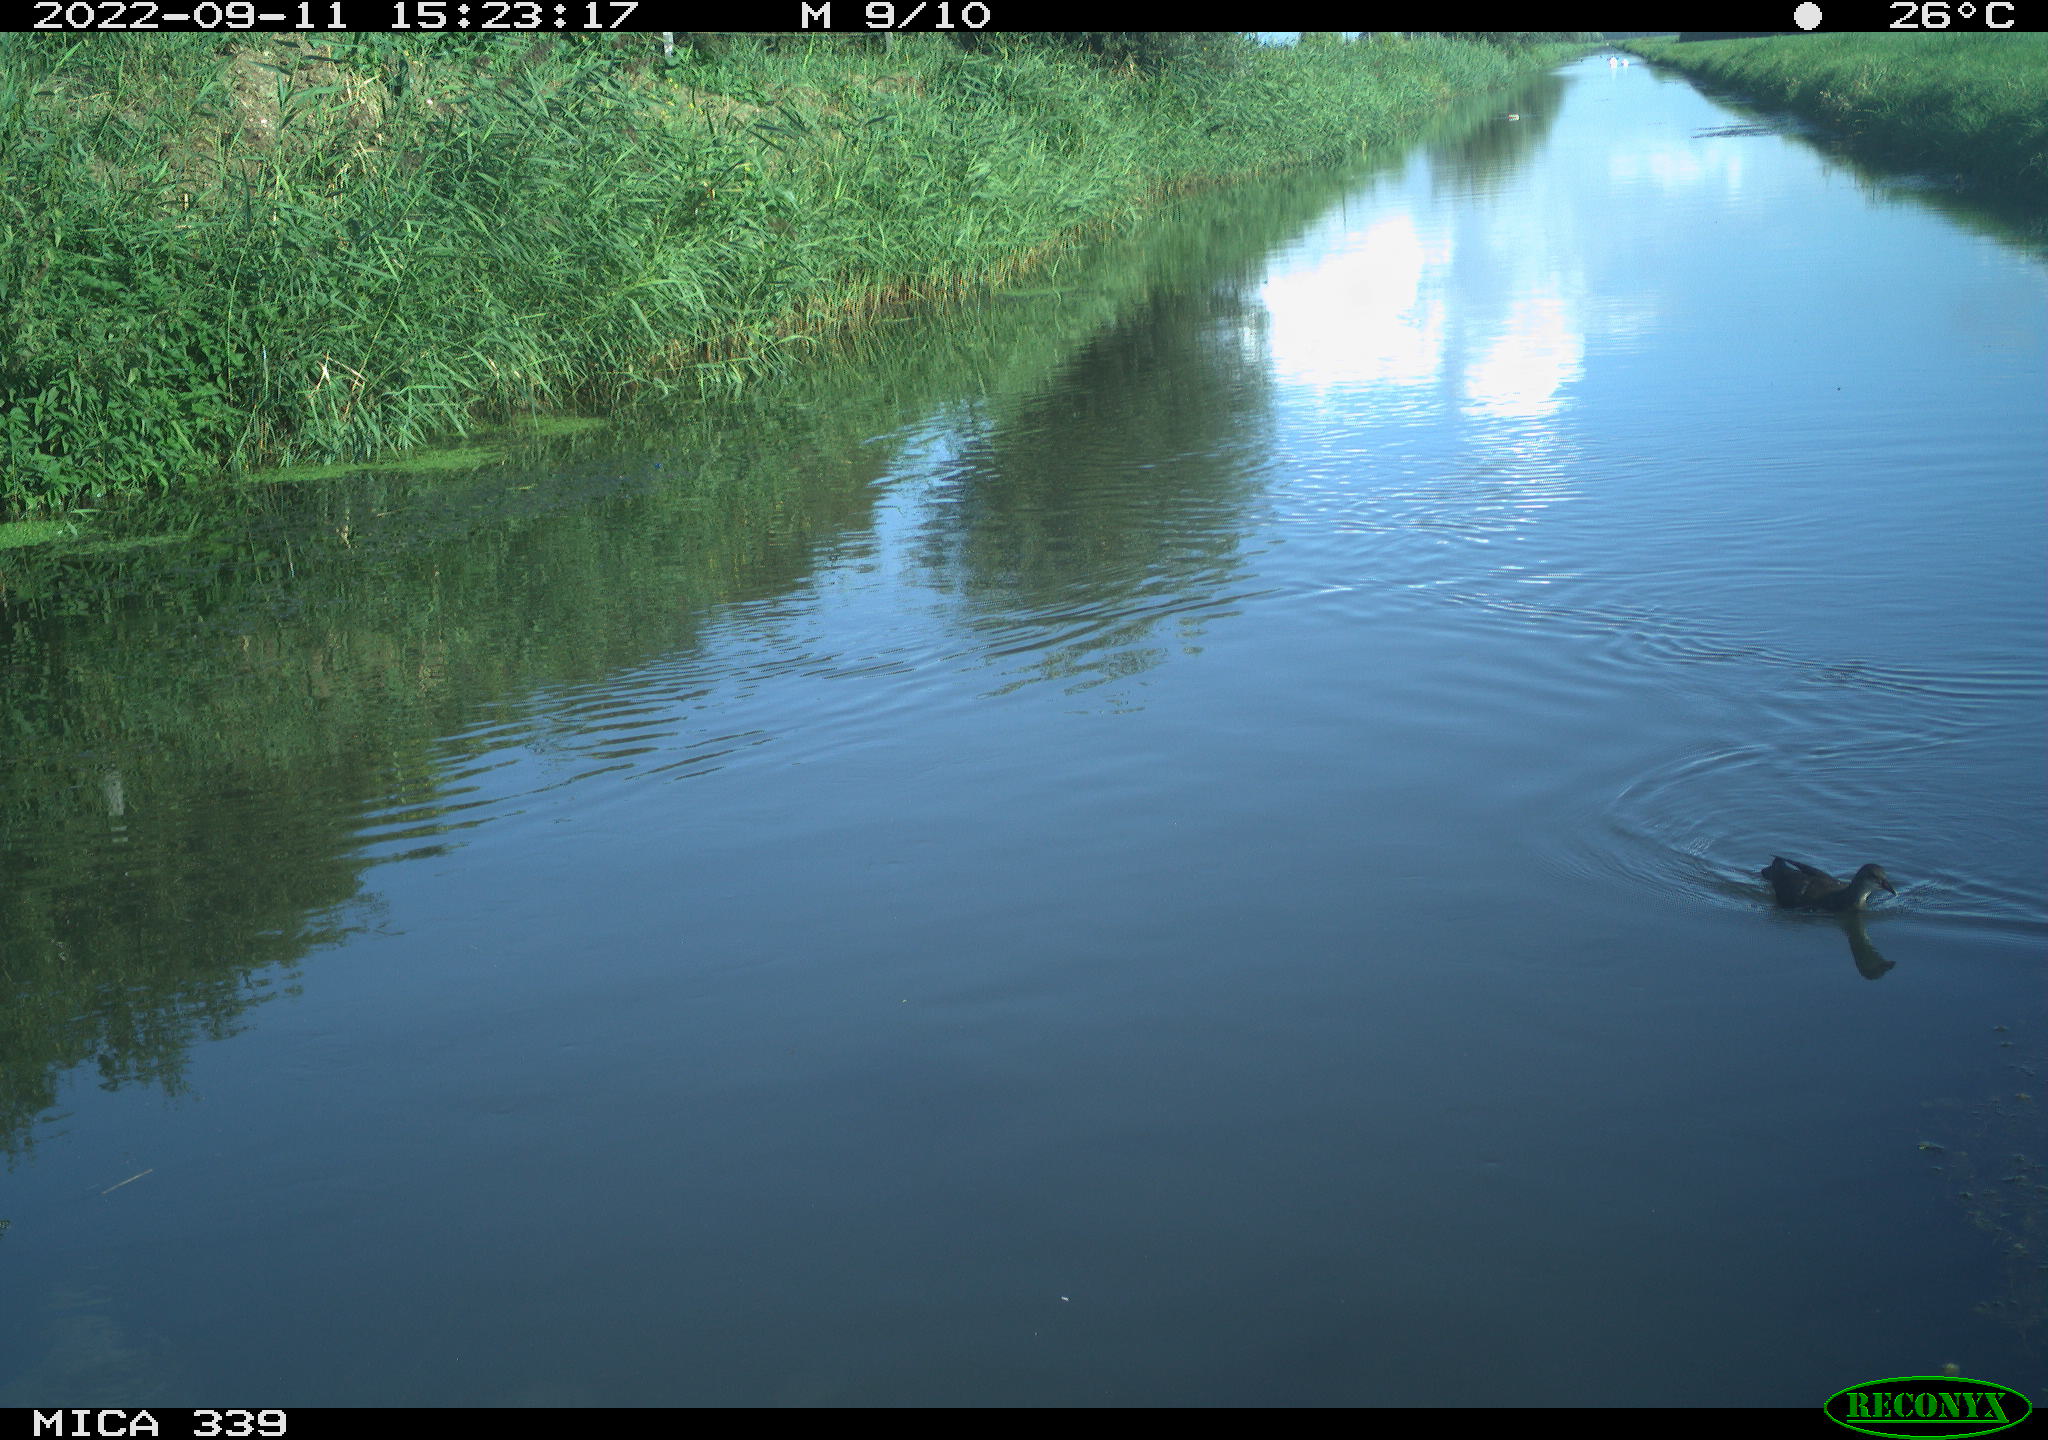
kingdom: Animalia
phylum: Chordata
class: Aves
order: Anseriformes
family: Anatidae
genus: Anas
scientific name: Anas
